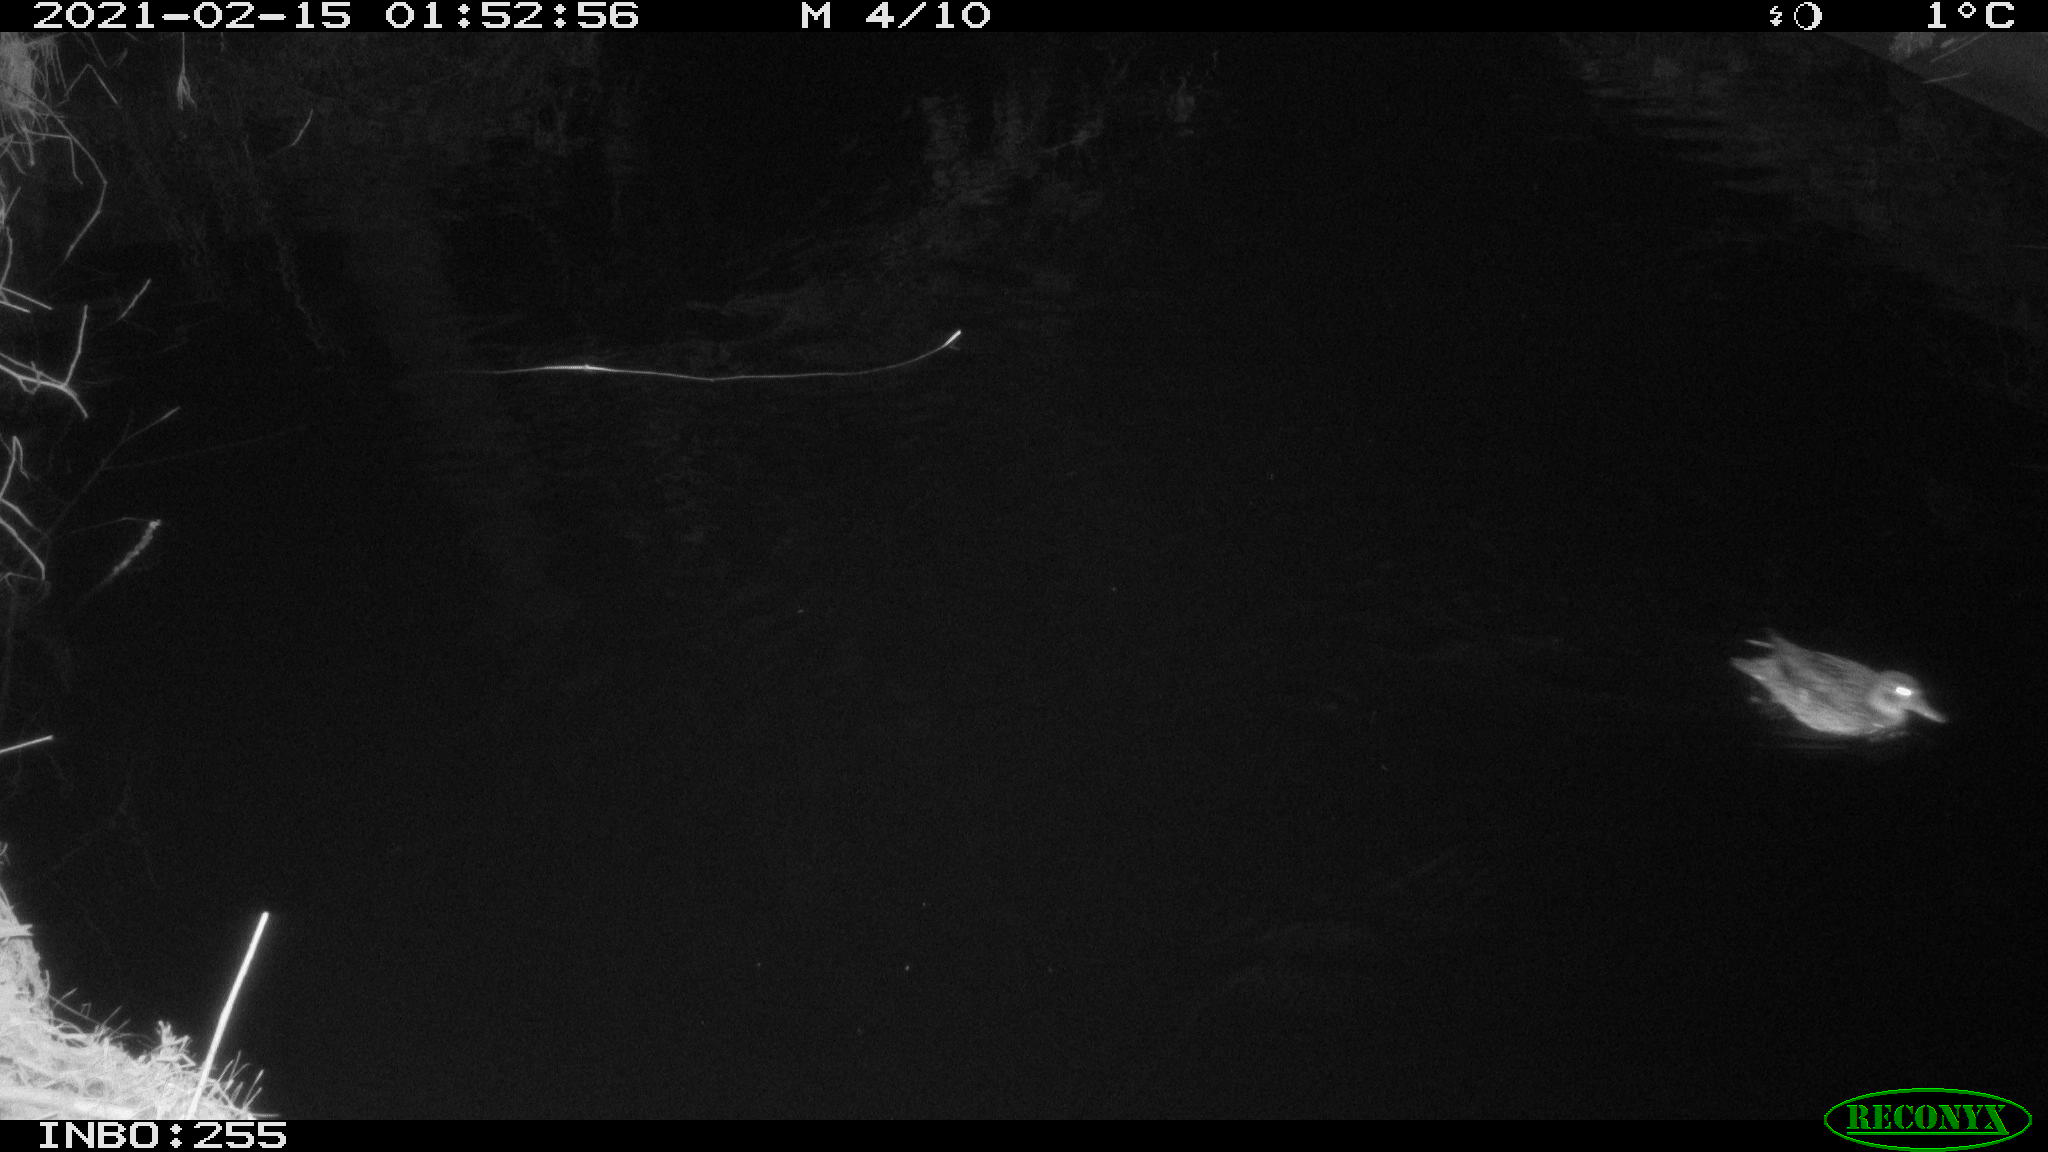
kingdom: Animalia
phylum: Chordata
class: Aves
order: Anseriformes
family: Anatidae
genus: Aix
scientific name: Aix galericulata
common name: Mandarin duck
